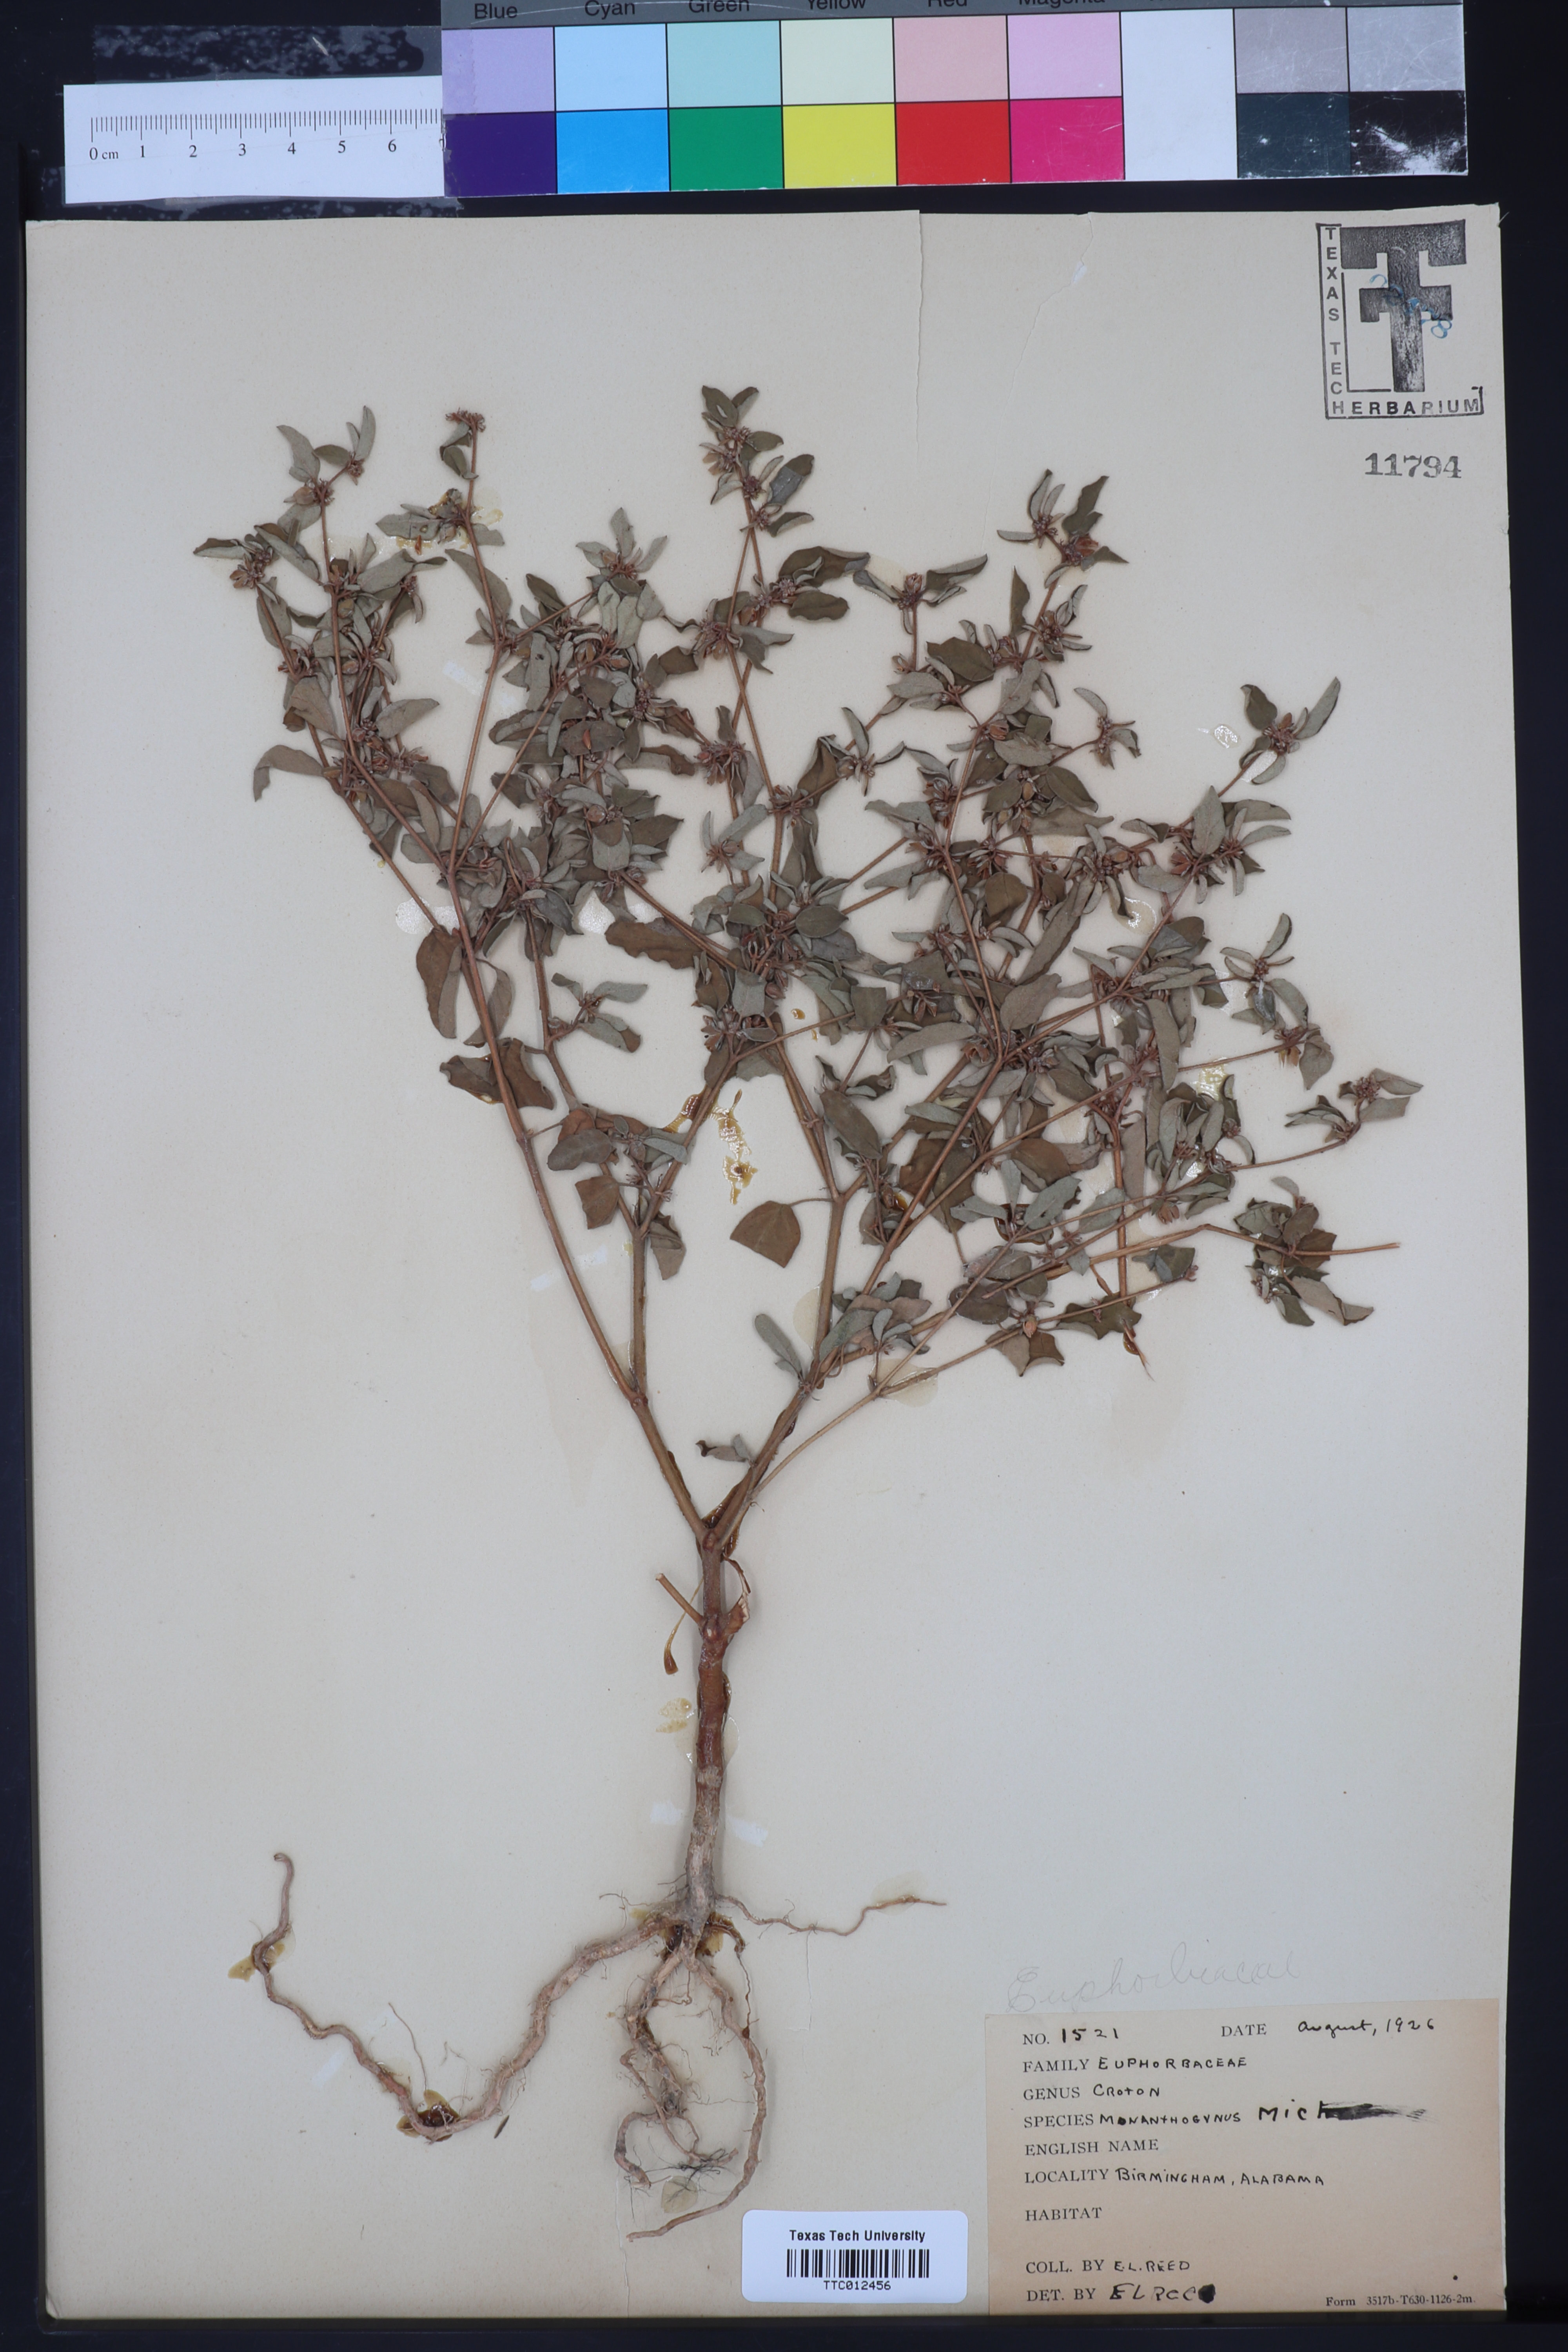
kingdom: Plantae
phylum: Tracheophyta
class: Magnoliopsida
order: Malpighiales
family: Euphorbiaceae
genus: Croton
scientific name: Croton monanthogynus
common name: One-seed croton
